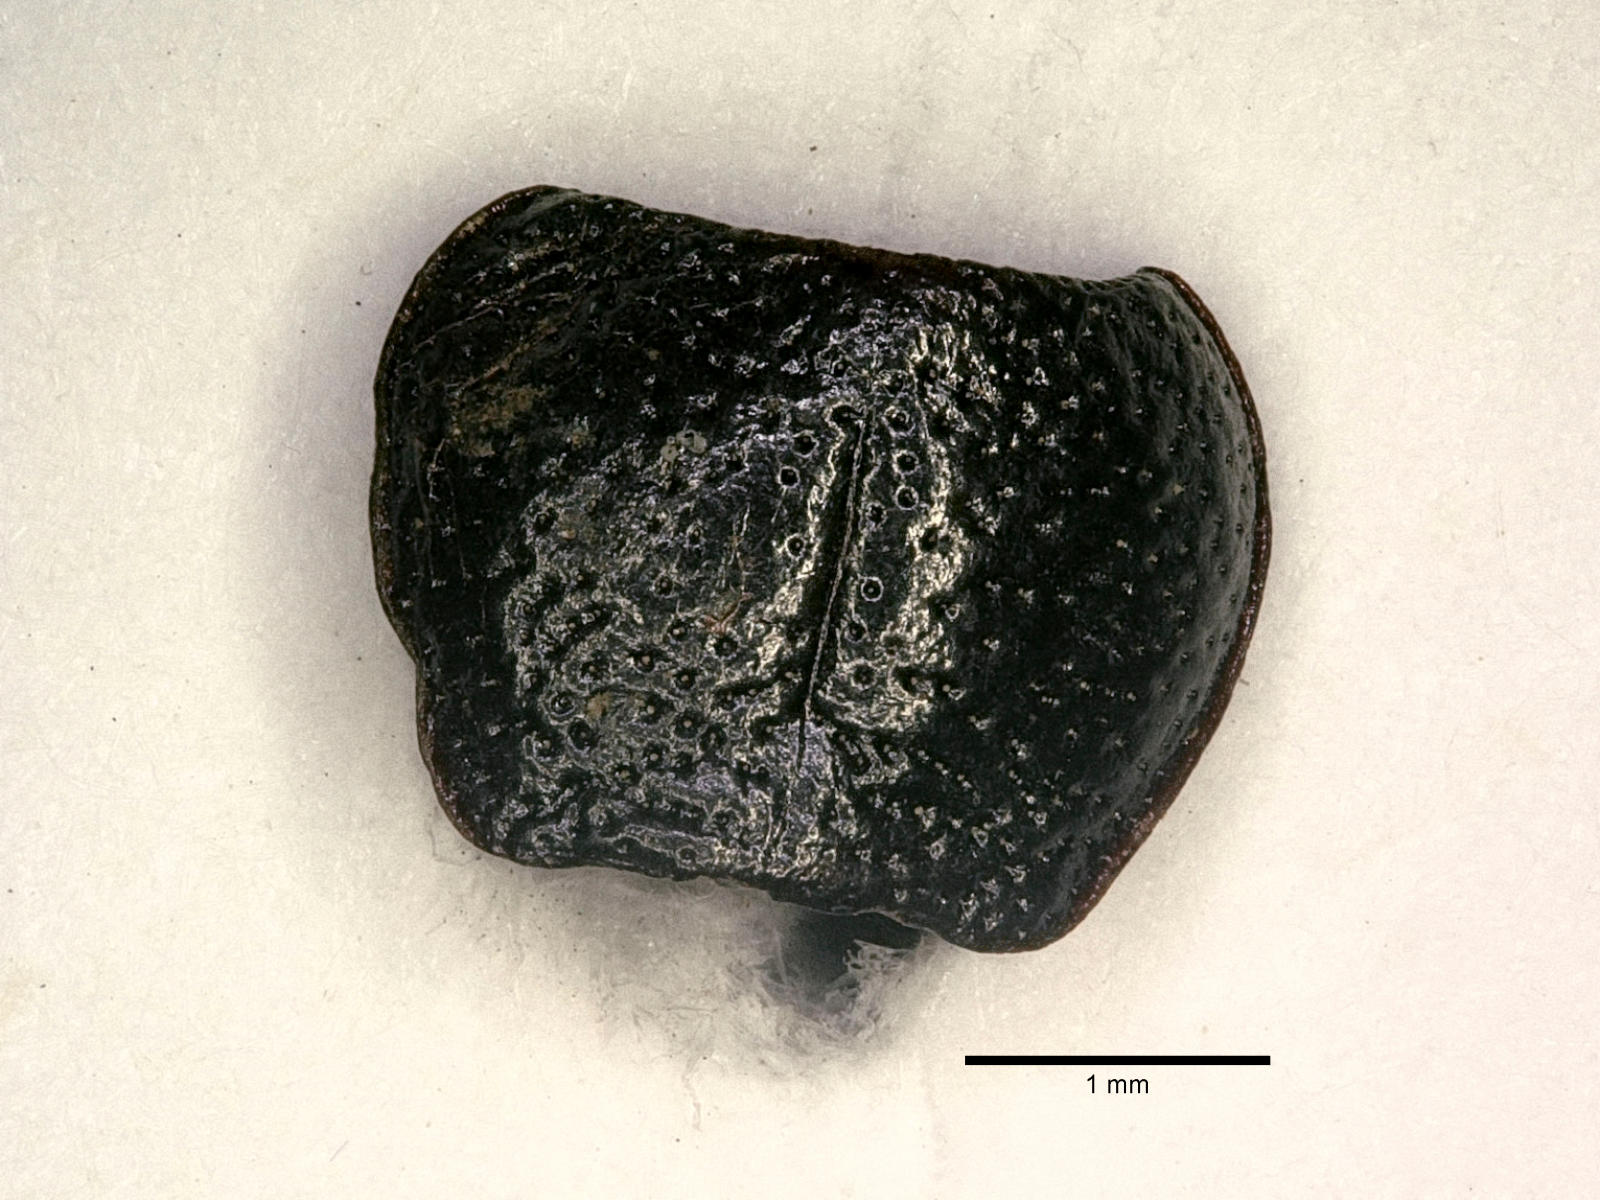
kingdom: Animalia
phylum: Arthropoda
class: Insecta
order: Coleoptera
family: Carabidae
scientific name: Carabidae
